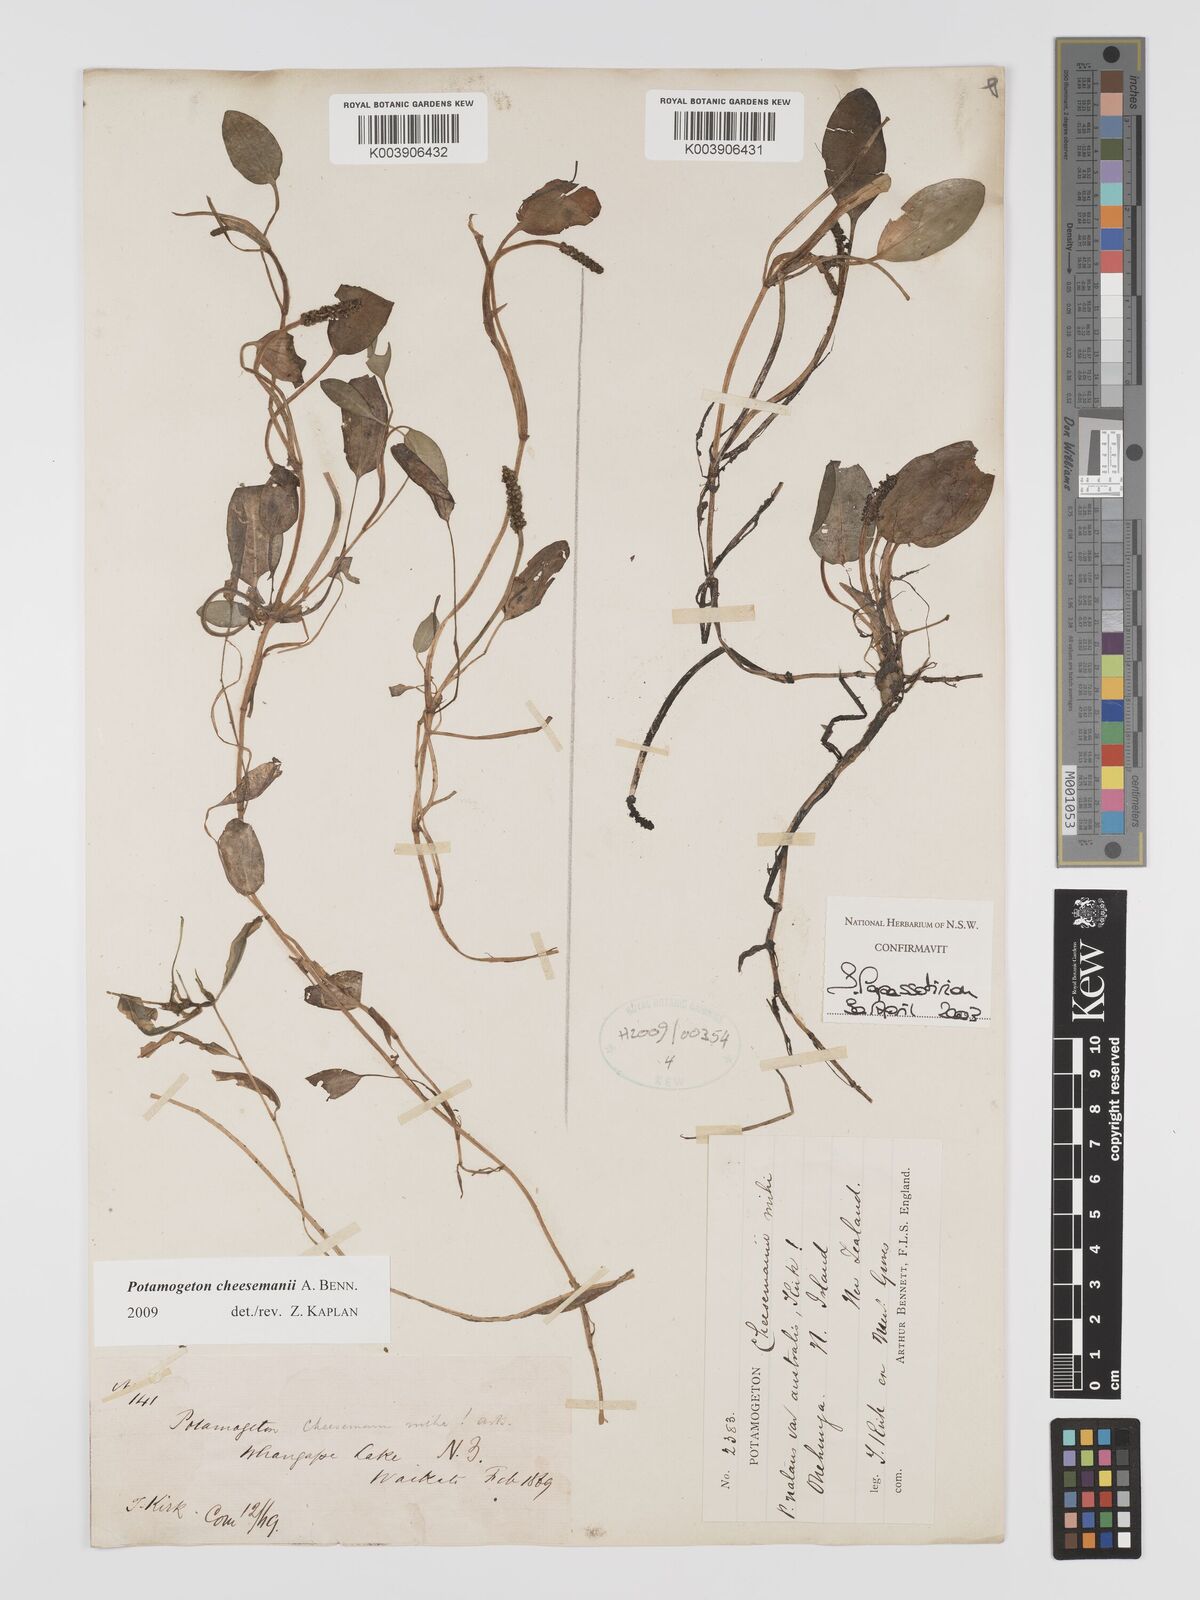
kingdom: Plantae
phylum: Tracheophyta
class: Liliopsida
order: Alismatales
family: Potamogetonaceae
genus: Potamogeton
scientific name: Potamogeton cheesemanii
